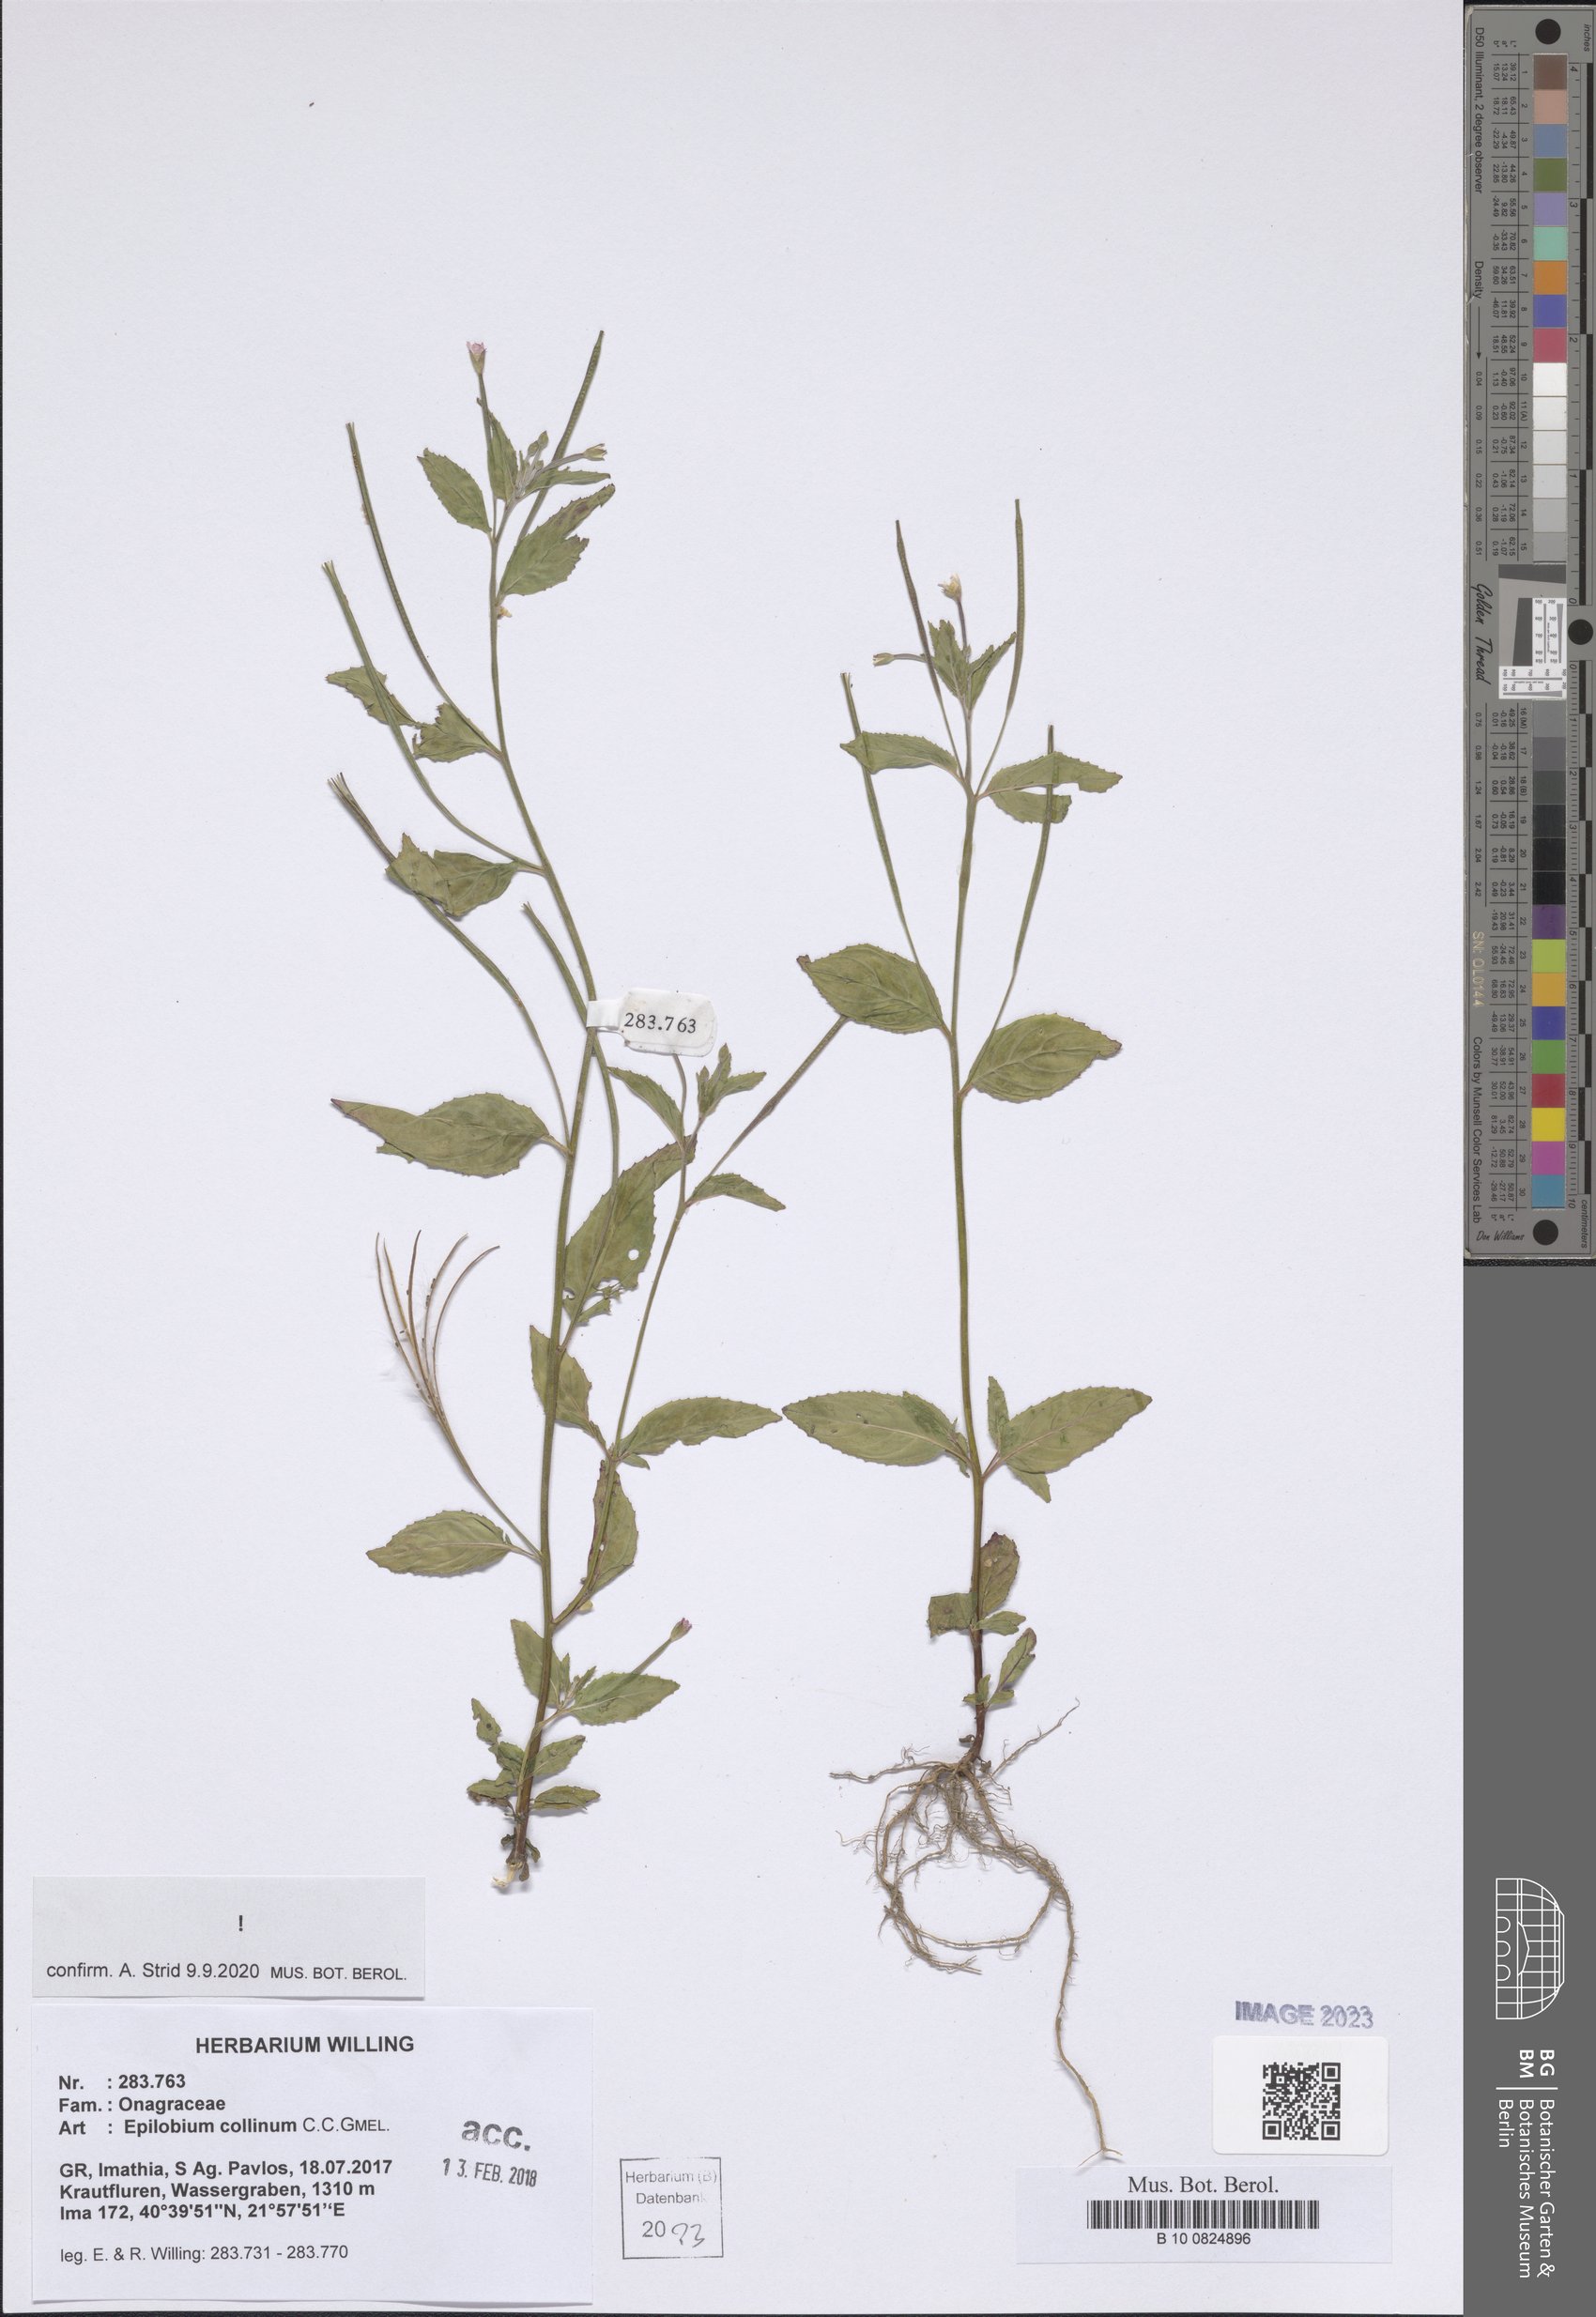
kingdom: Plantae
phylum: Tracheophyta
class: Magnoliopsida
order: Myrtales
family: Onagraceae
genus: Epilobium
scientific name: Epilobium collinum
